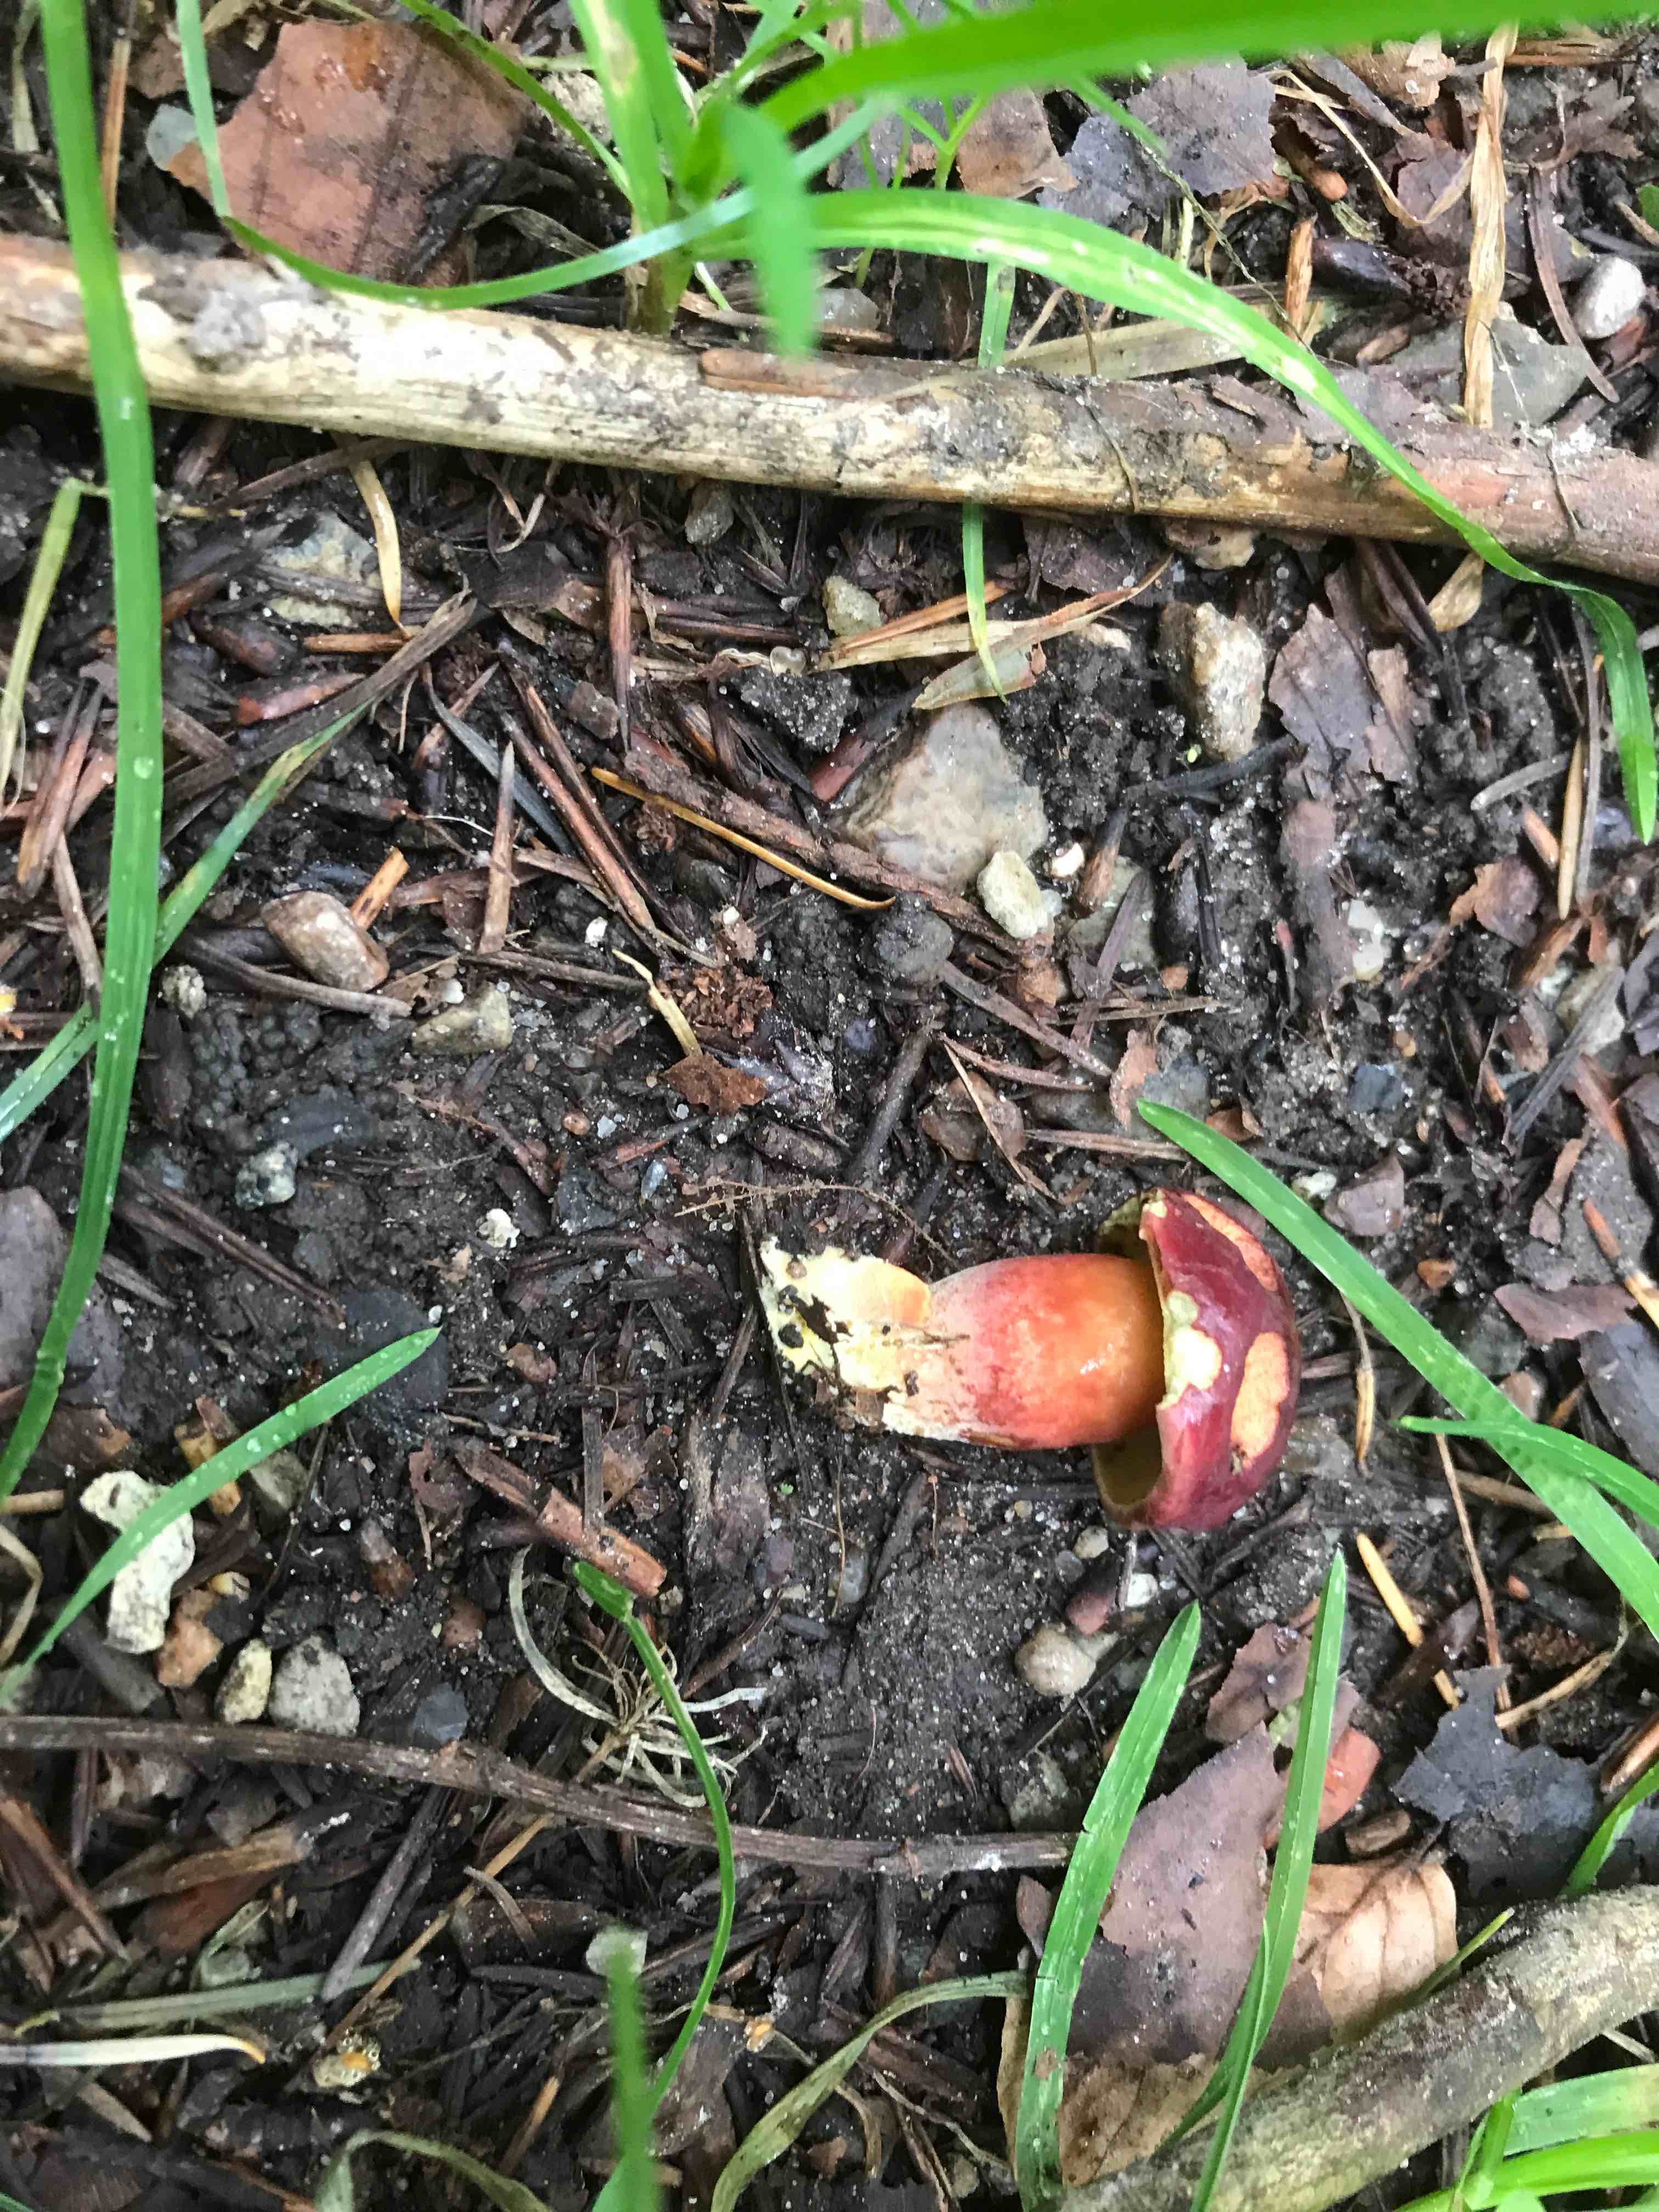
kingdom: Fungi
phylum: Basidiomycota
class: Agaricomycetes
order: Boletales
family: Boletaceae
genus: Hortiboletus
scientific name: Hortiboletus rubellus
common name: blodrød rørhat
